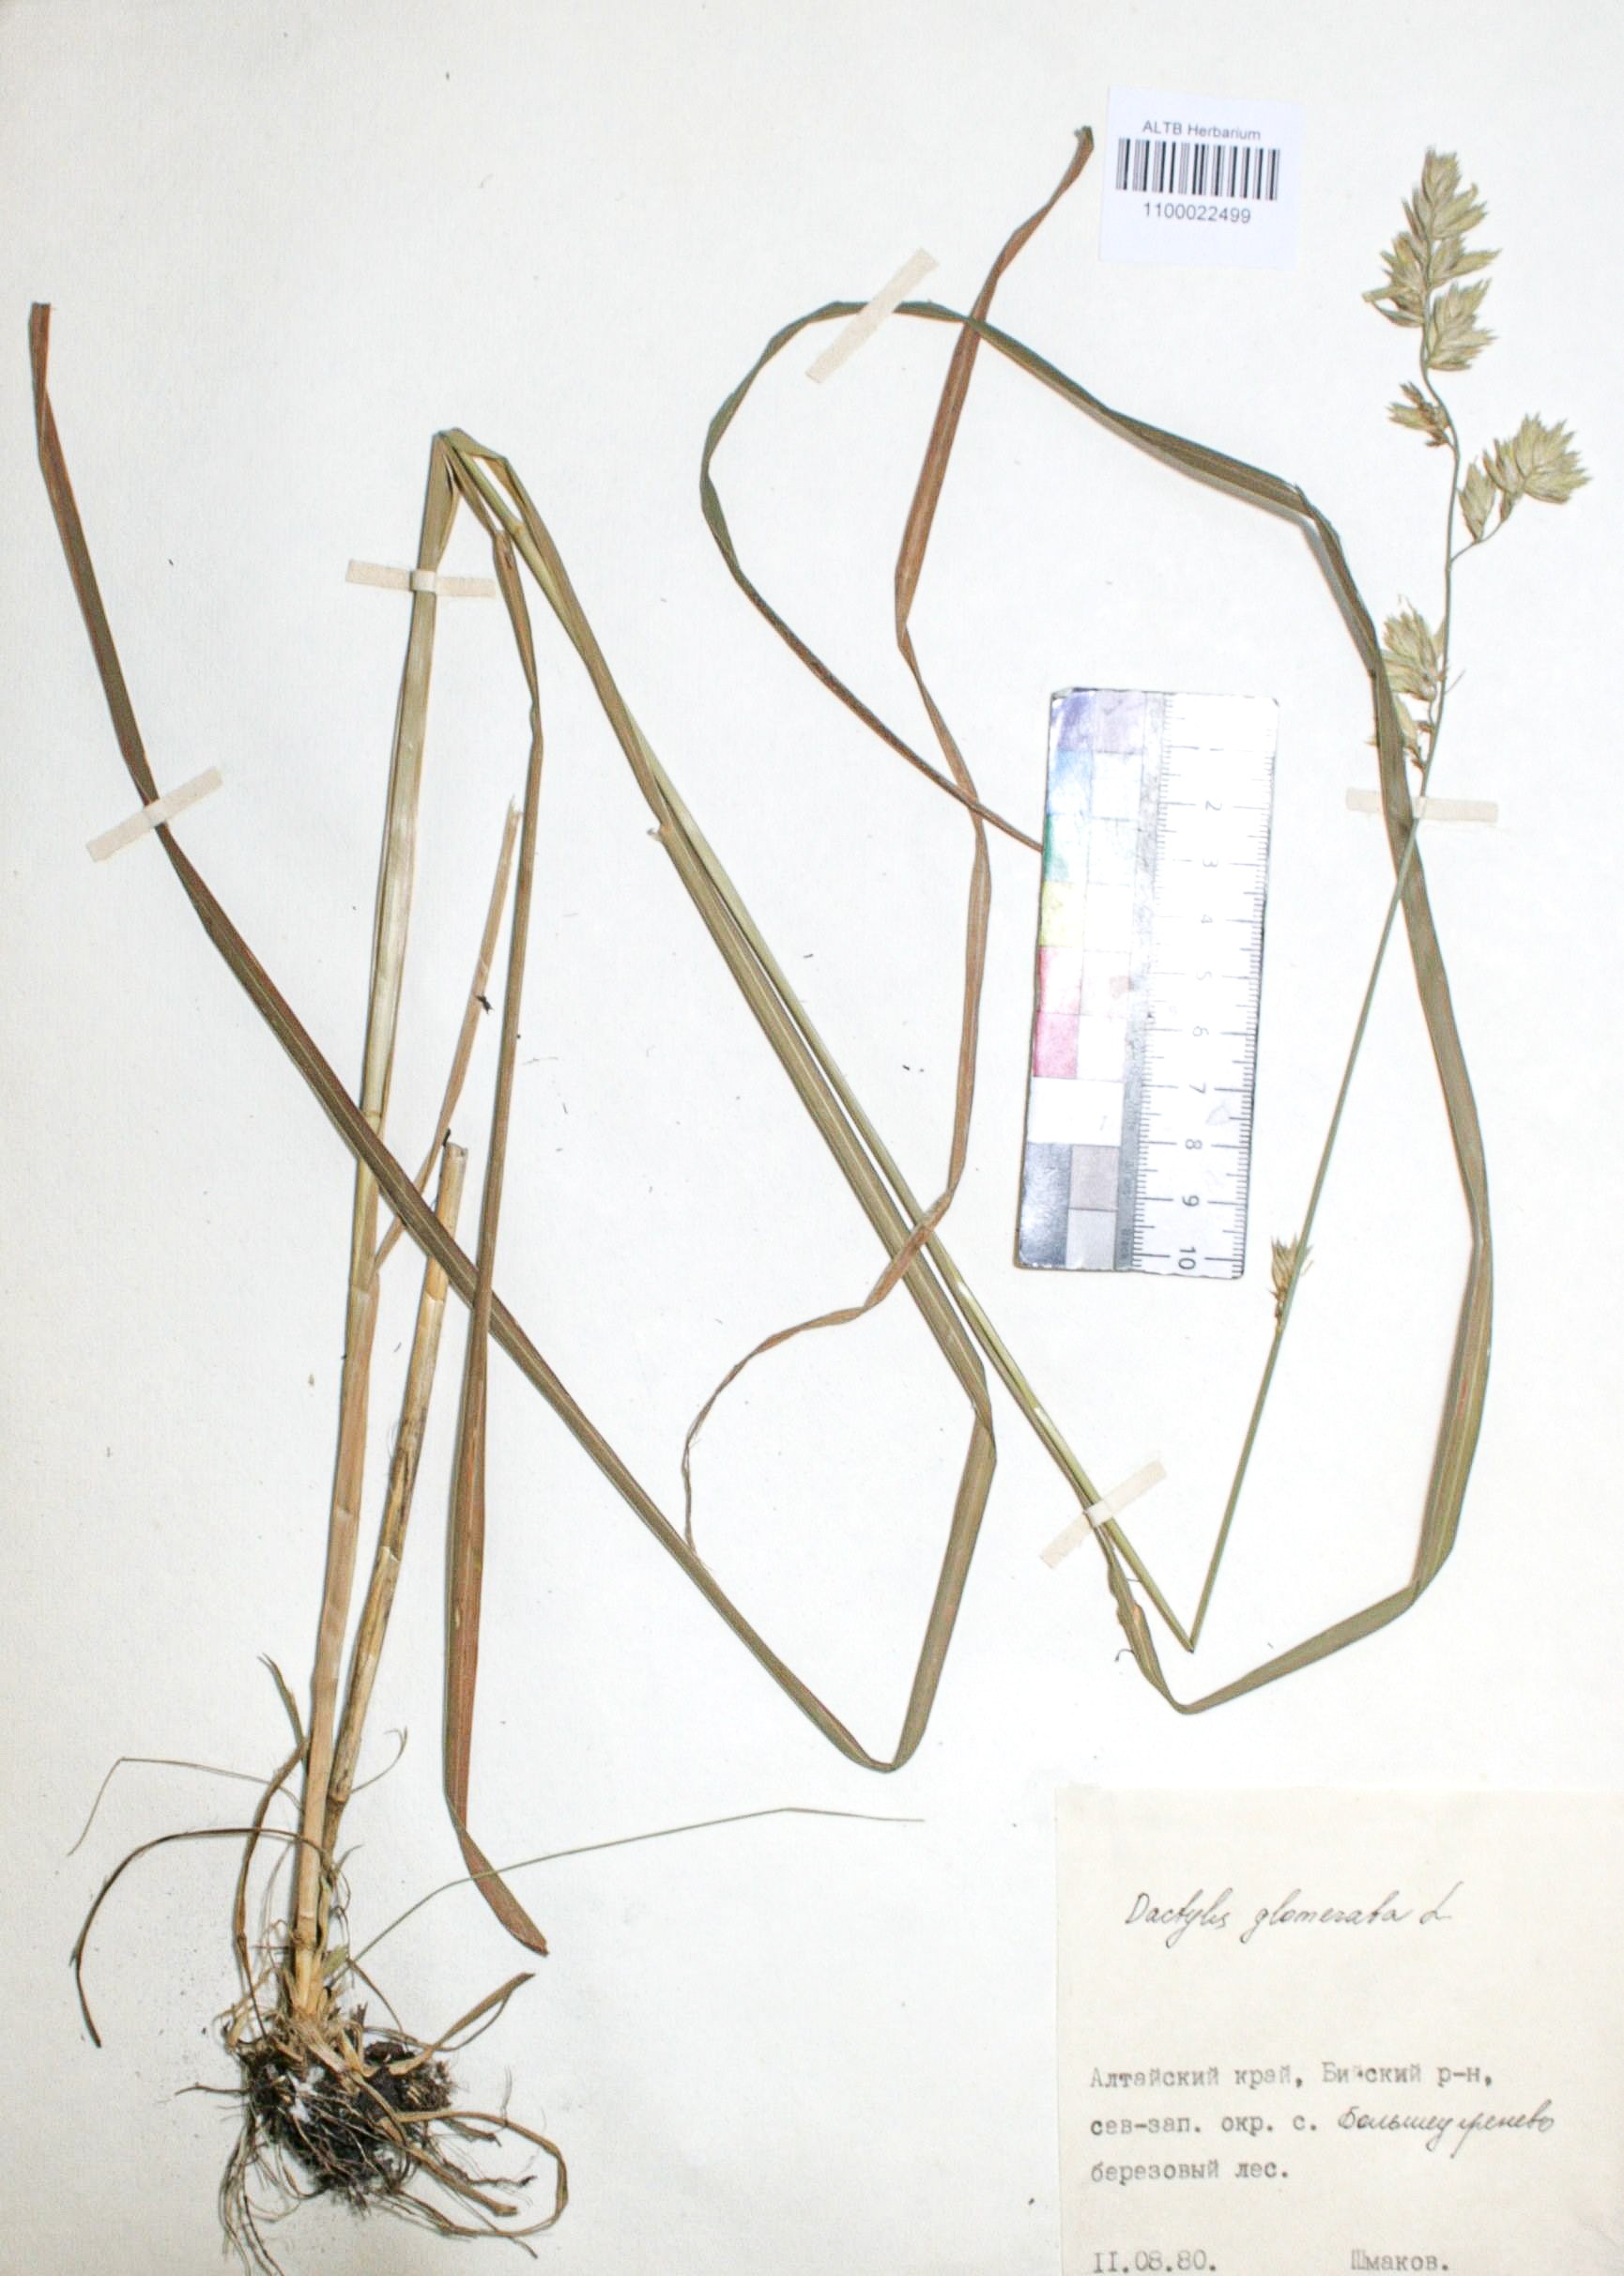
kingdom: Plantae
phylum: Tracheophyta
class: Liliopsida
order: Poales
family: Poaceae
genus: Dactylis
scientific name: Dactylis glomerata
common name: Orchardgrass
